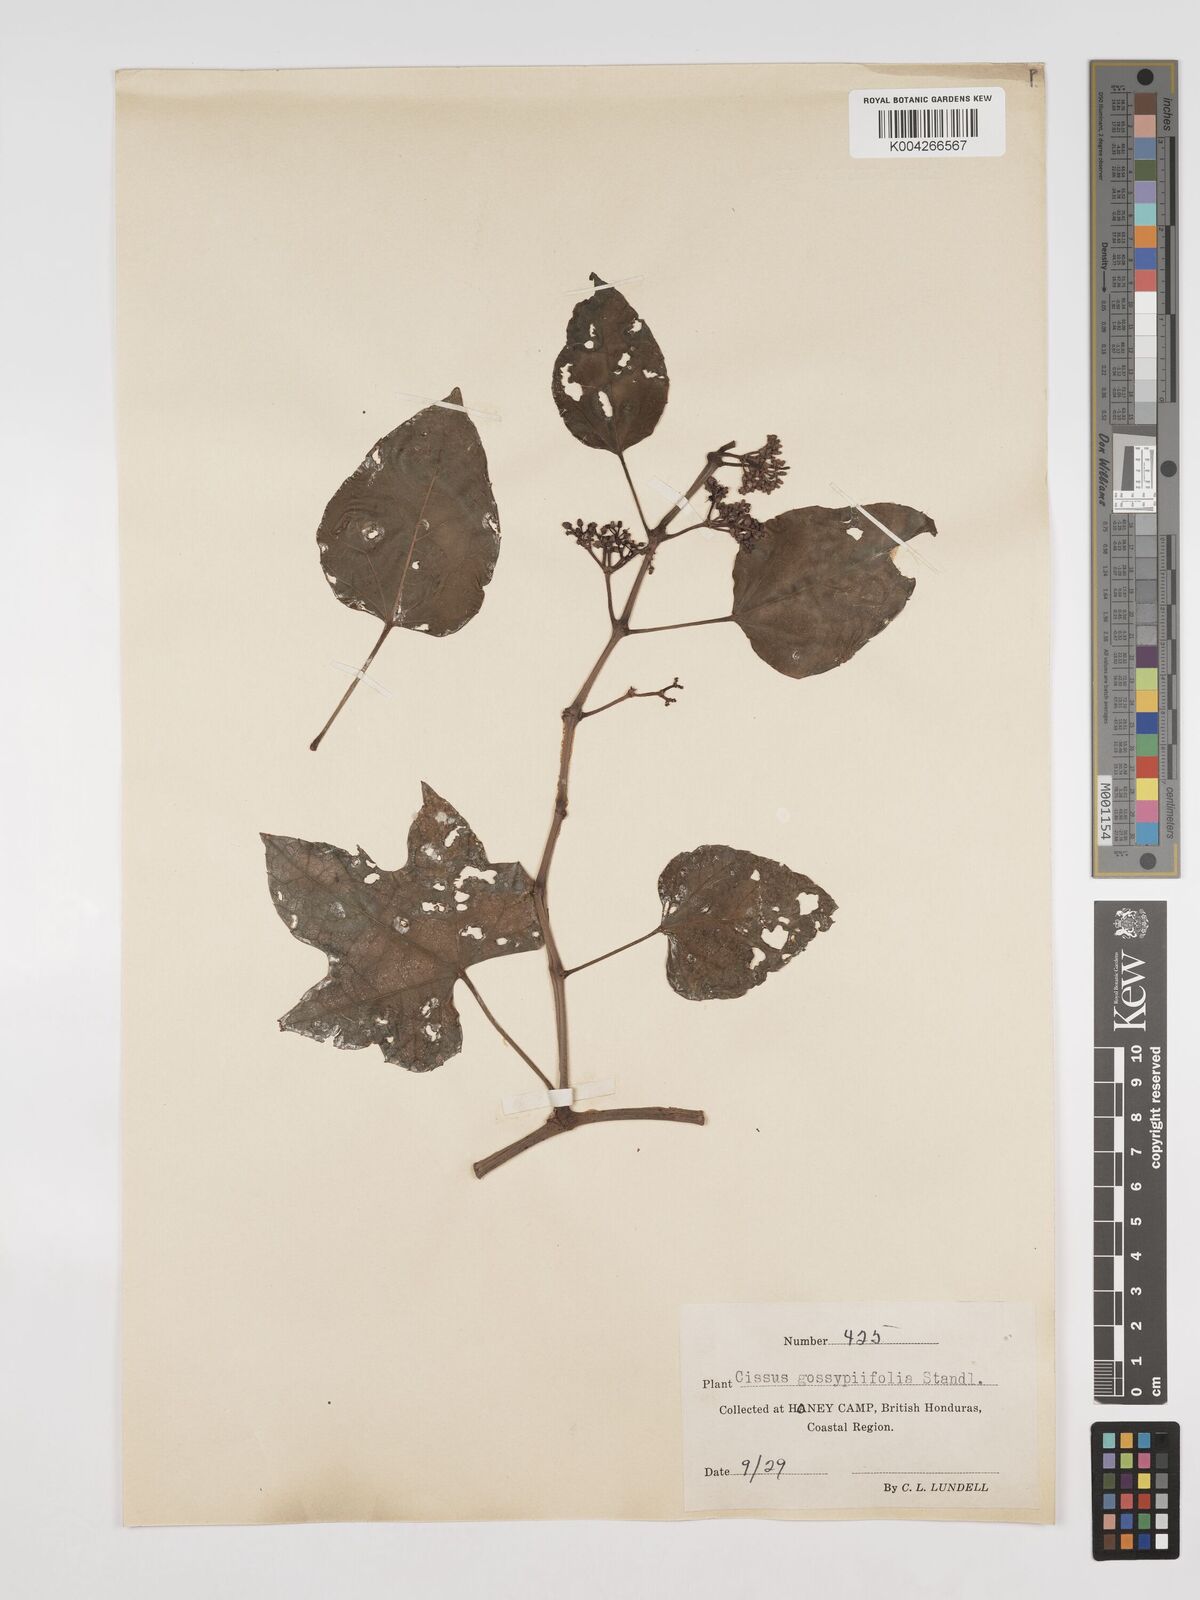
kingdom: Plantae
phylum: Tracheophyta
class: Magnoliopsida
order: Vitales
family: Vitaceae
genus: Cissus
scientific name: Cissus gossypiifolia
